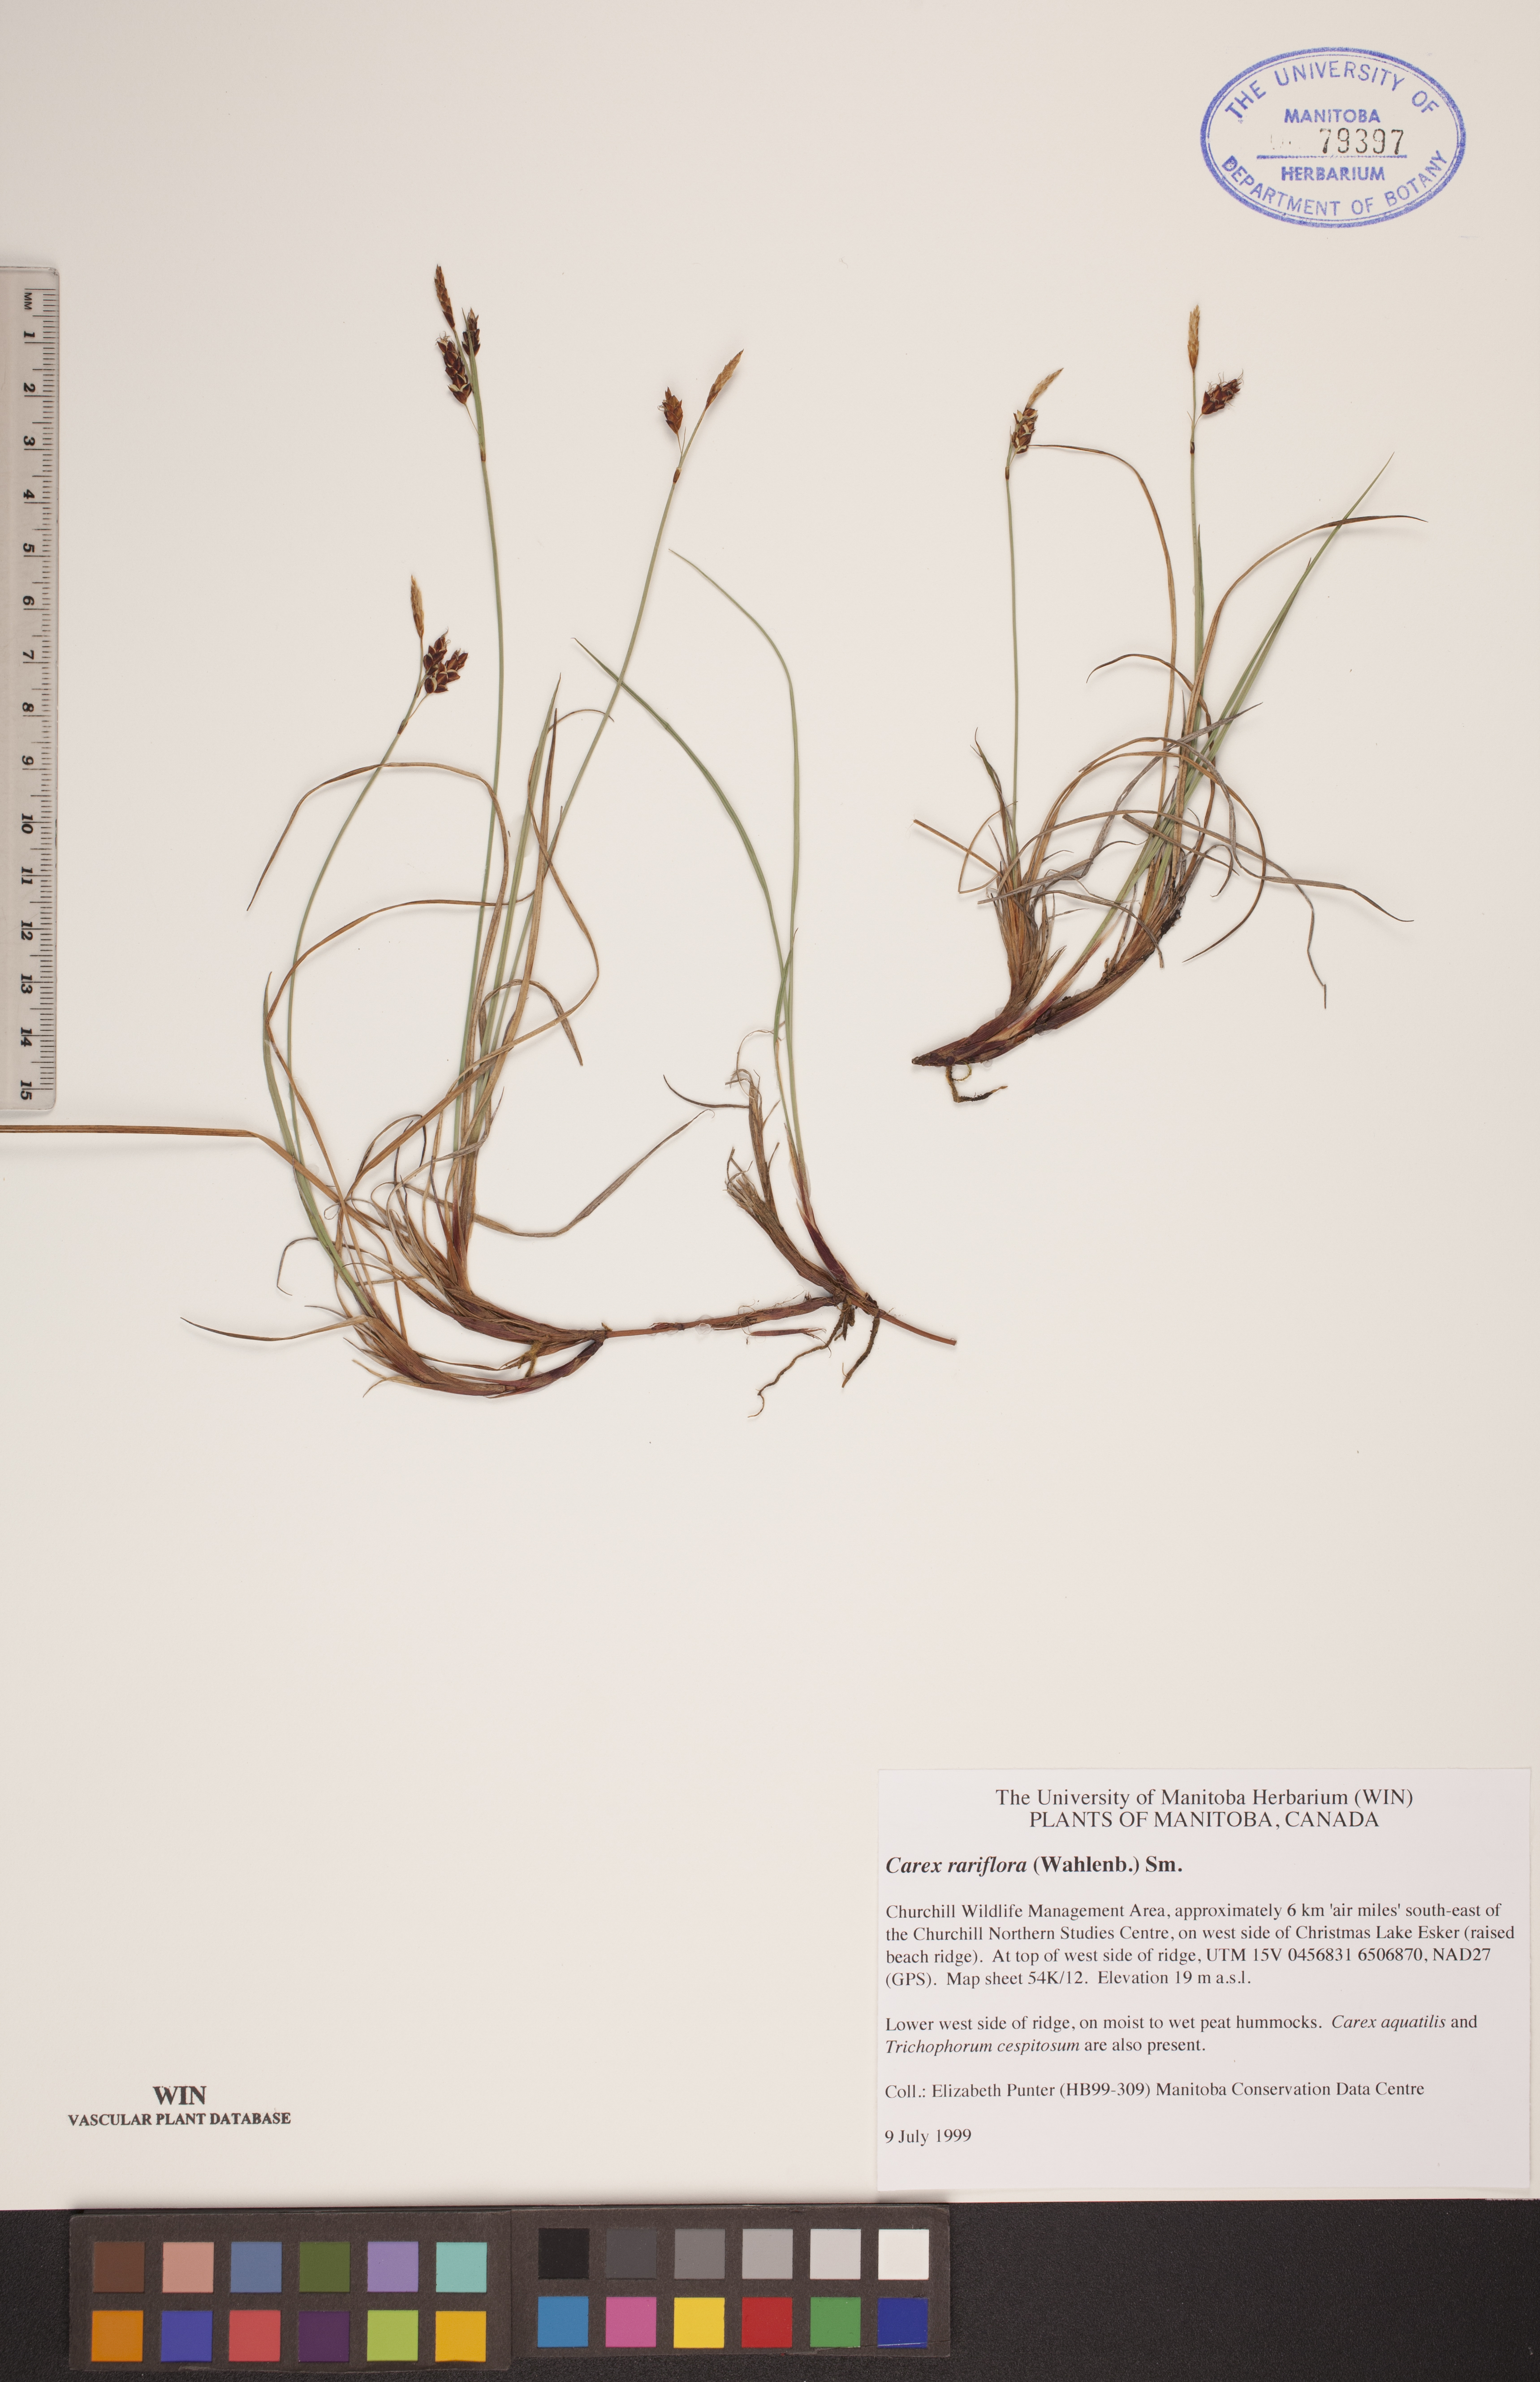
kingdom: Plantae
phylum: Tracheophyta
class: Liliopsida
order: Poales
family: Cyperaceae
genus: Carex
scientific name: Carex rariflora
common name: Loose-flowered alpine sedge
